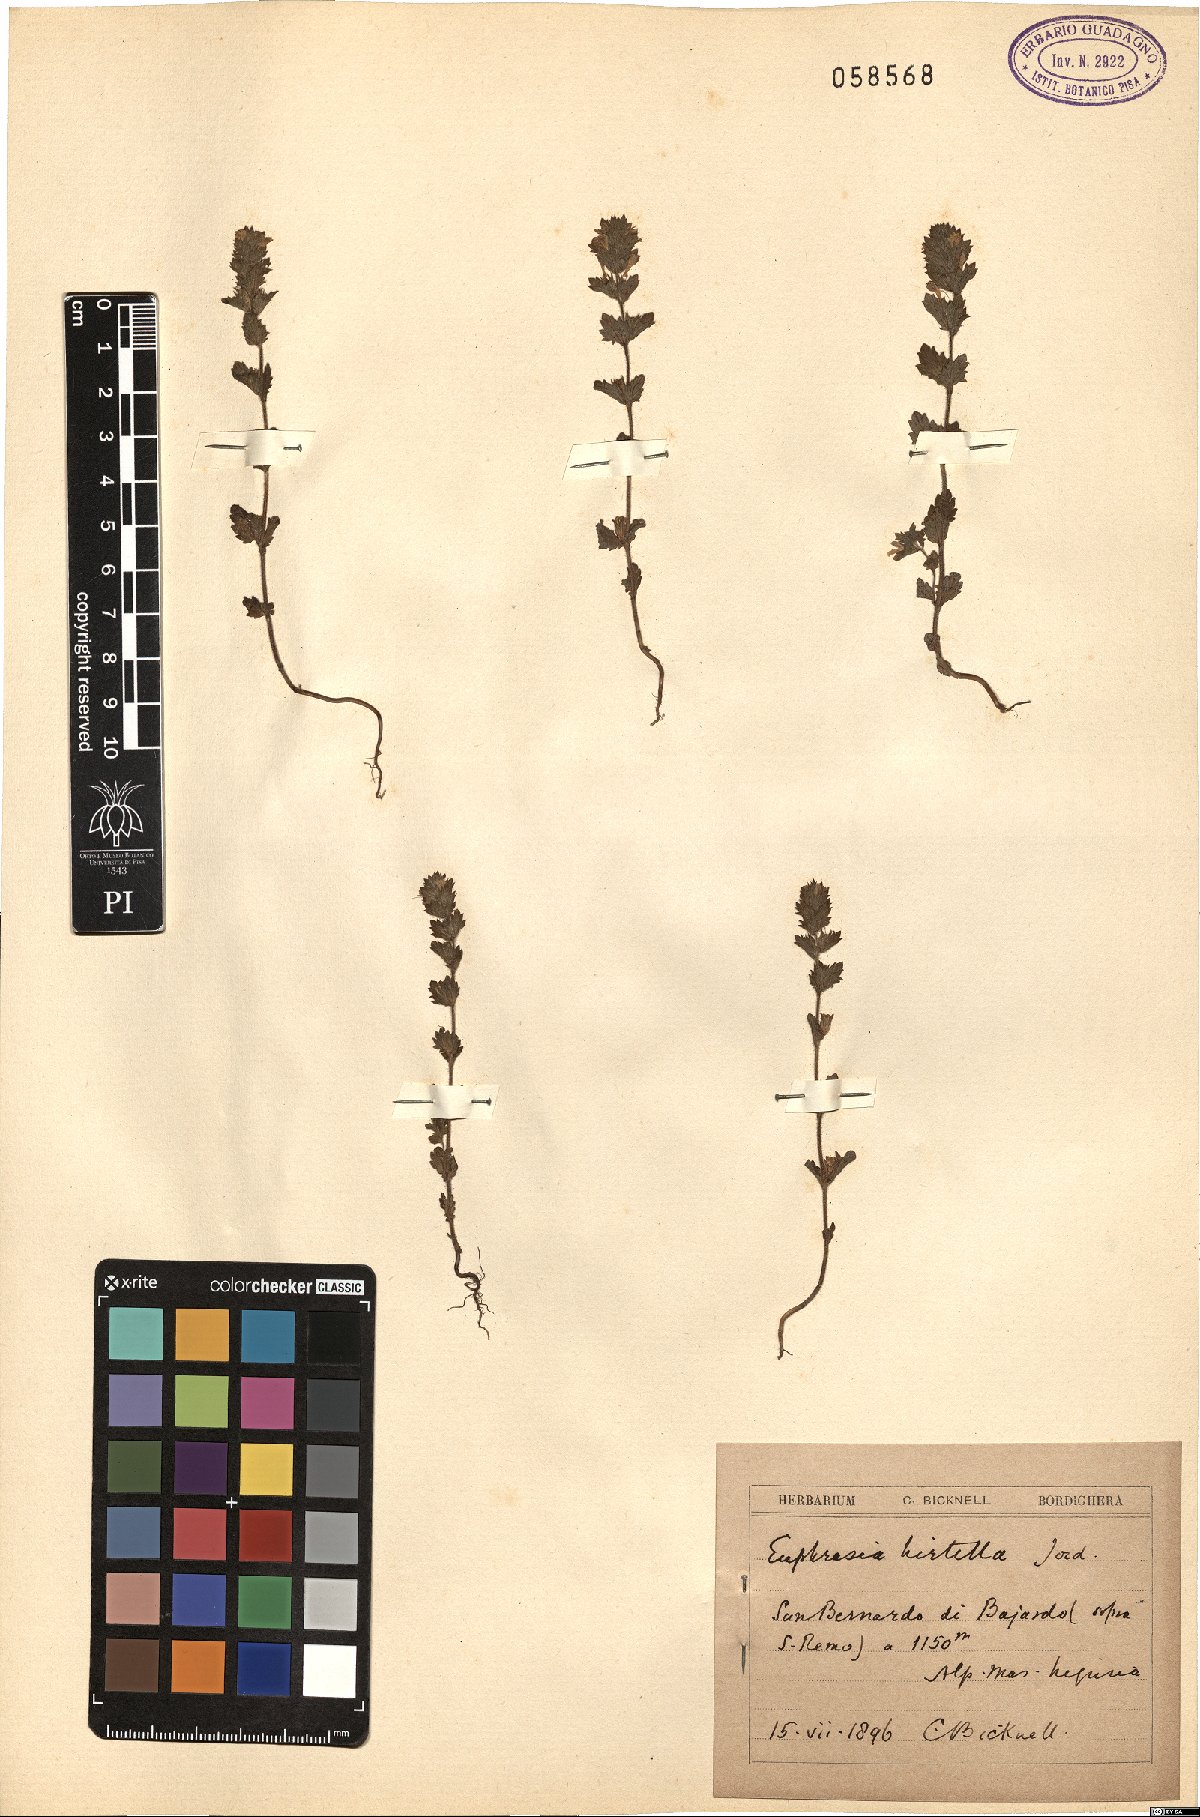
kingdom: Plantae
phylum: Tracheophyta
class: Magnoliopsida
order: Lamiales
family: Orobanchaceae
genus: Euphrasia
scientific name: Euphrasia hirtella
